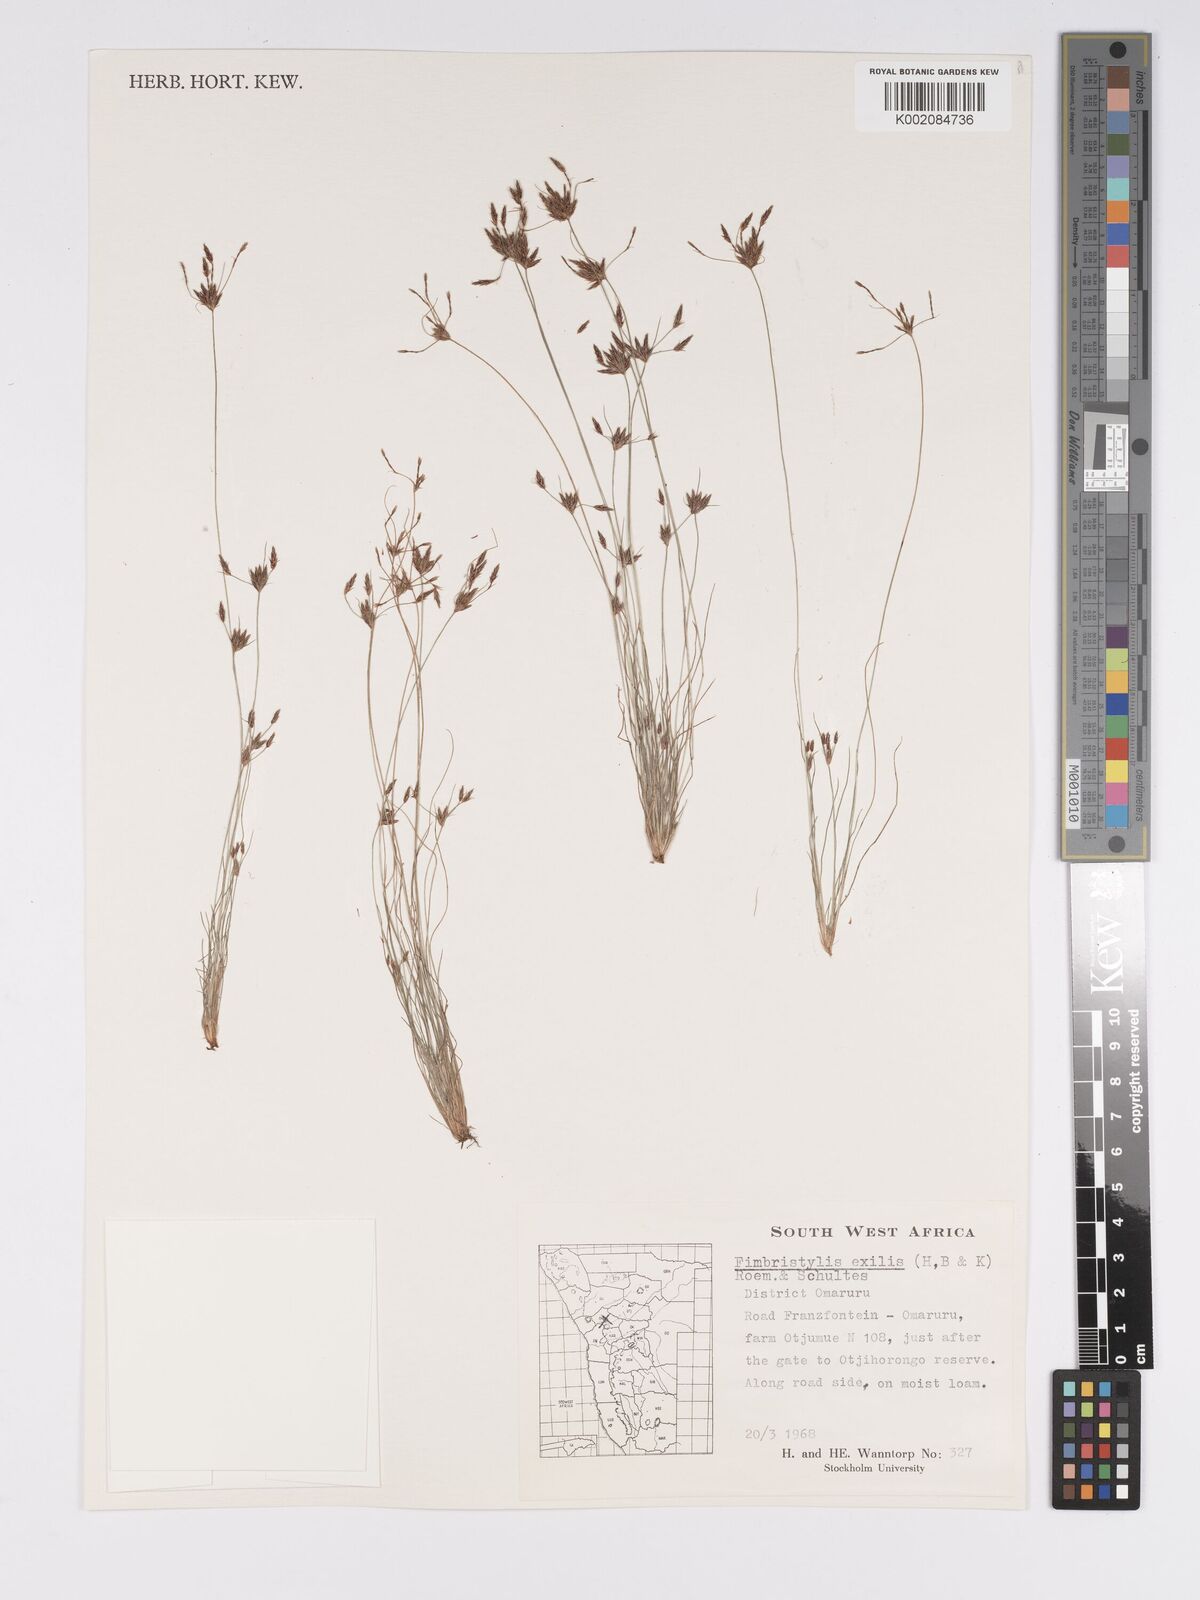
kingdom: Plantae
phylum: Tracheophyta
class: Liliopsida
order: Poales
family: Cyperaceae
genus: Bulbostylis
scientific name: Bulbostylis hispidula
